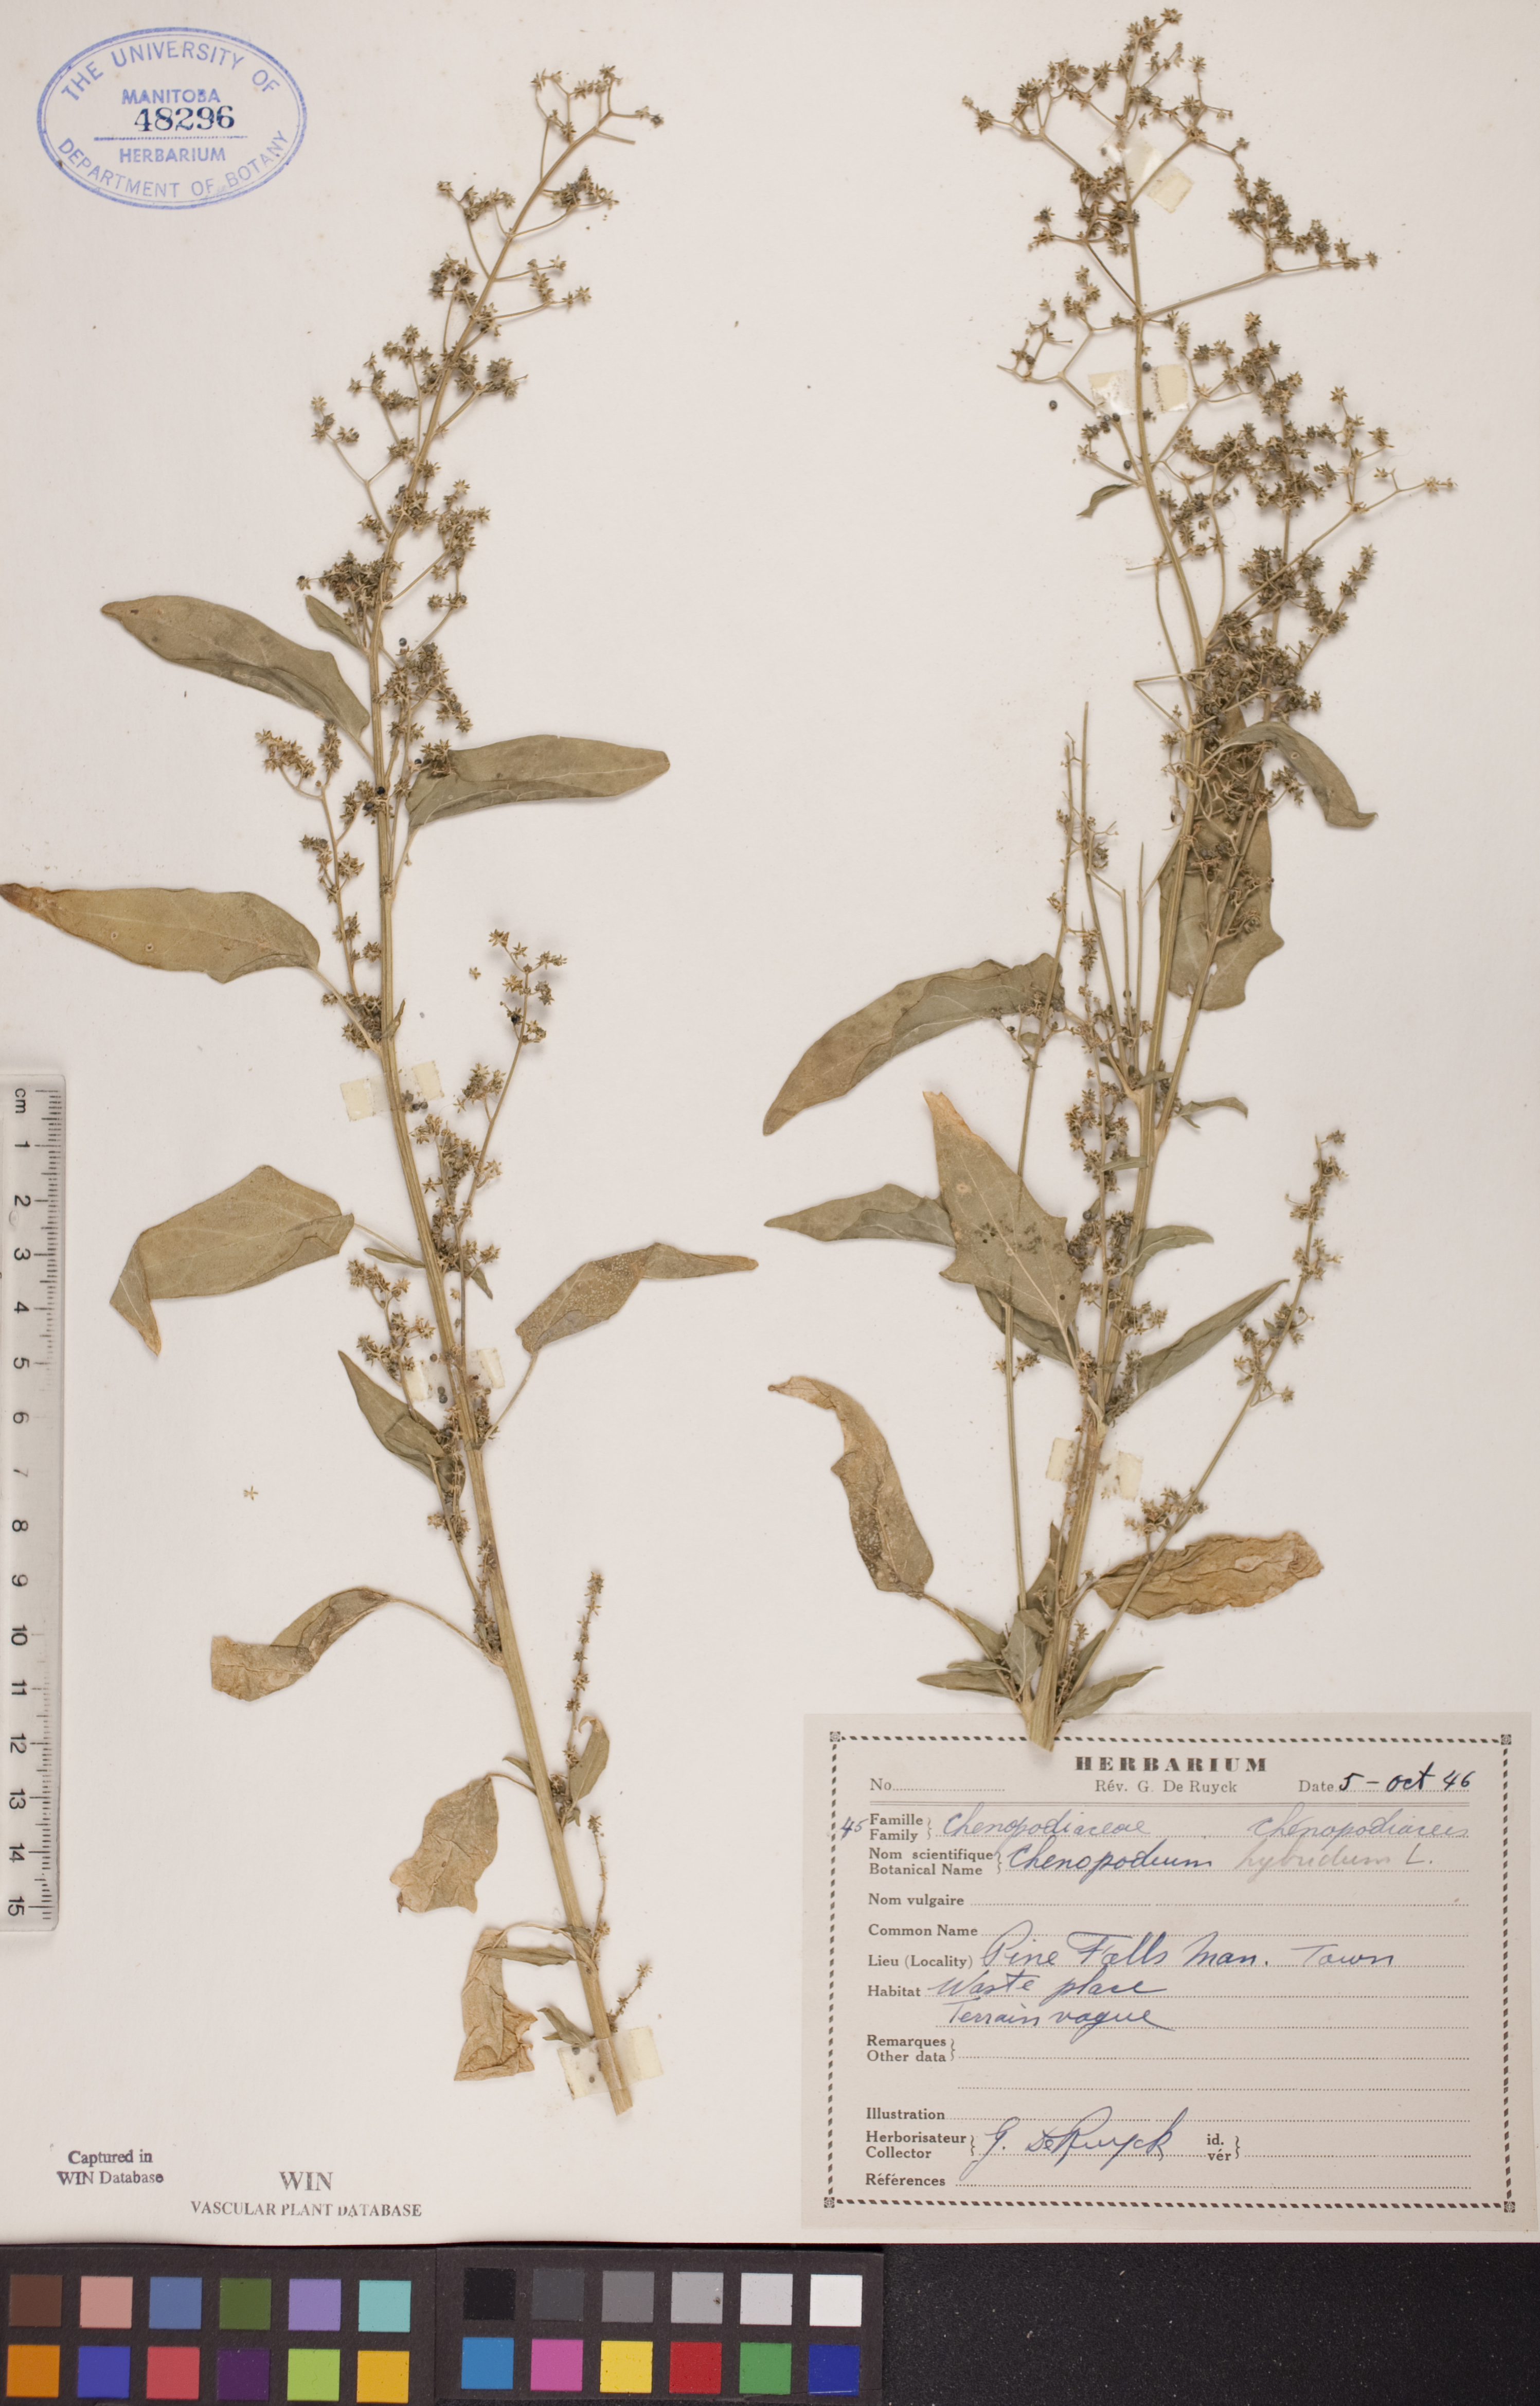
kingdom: Plantae
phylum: Tracheophyta
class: Magnoliopsida
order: Caryophyllales
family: Amaranthaceae
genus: Chenopodiastrum
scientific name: Chenopodiastrum hybridum
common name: Mapleleaf goosefoot
